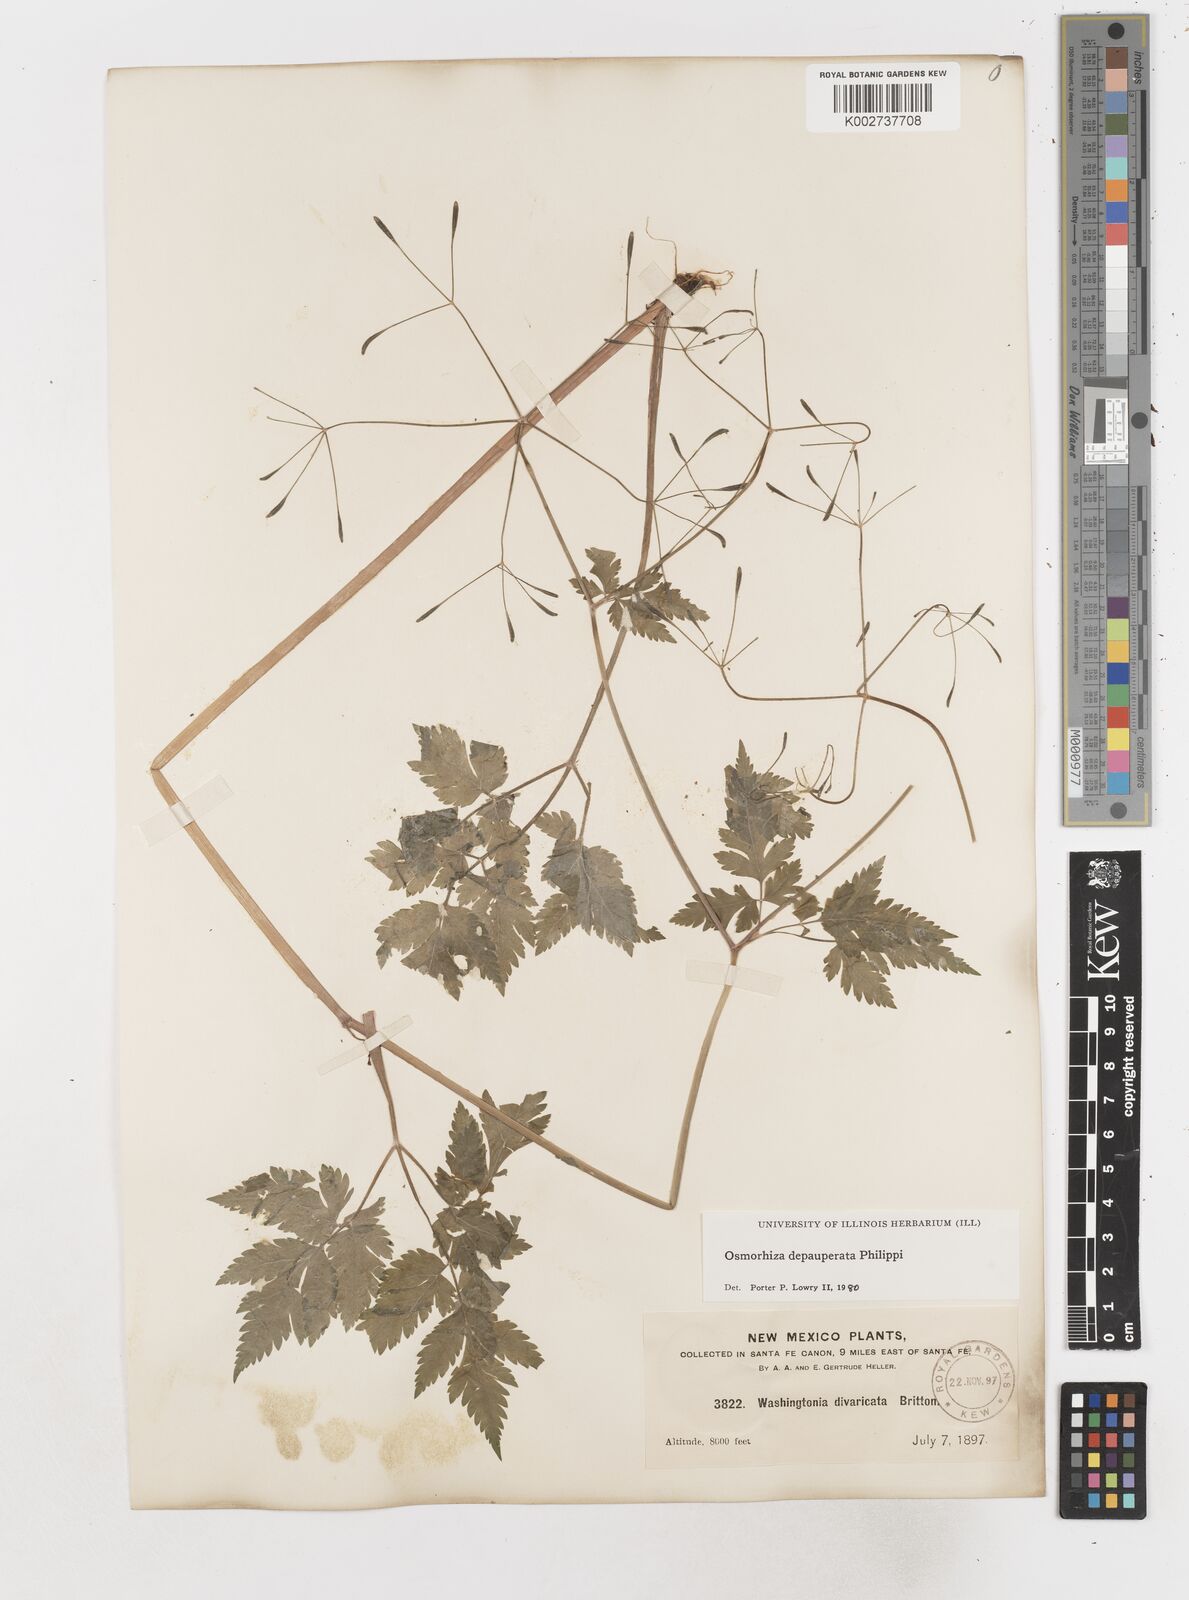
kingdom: Plantae
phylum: Tracheophyta
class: Magnoliopsida
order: Apiales
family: Apiaceae
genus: Osmorhiza
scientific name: Osmorhiza depauperata
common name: Blunt sweet cicely
